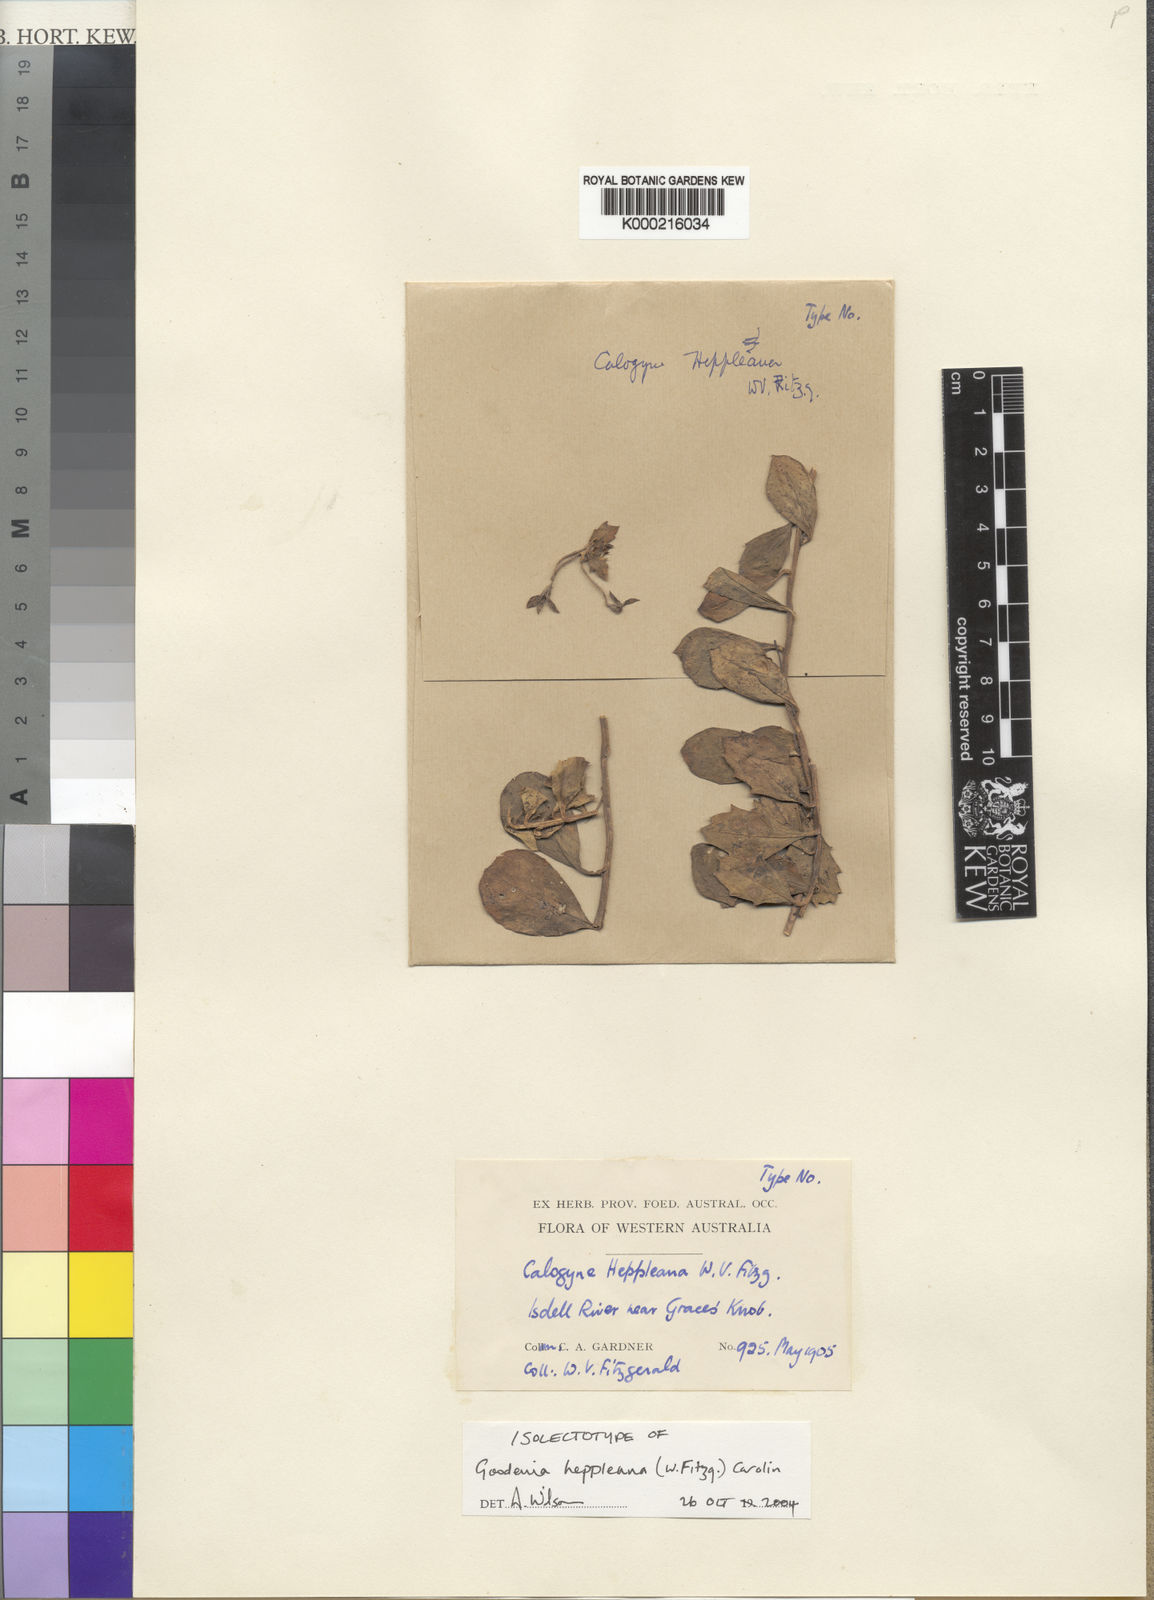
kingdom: Plantae
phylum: Tracheophyta
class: Magnoliopsida
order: Asterales
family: Goodeniaceae
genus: Goodenia
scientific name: Goodenia heppleana
